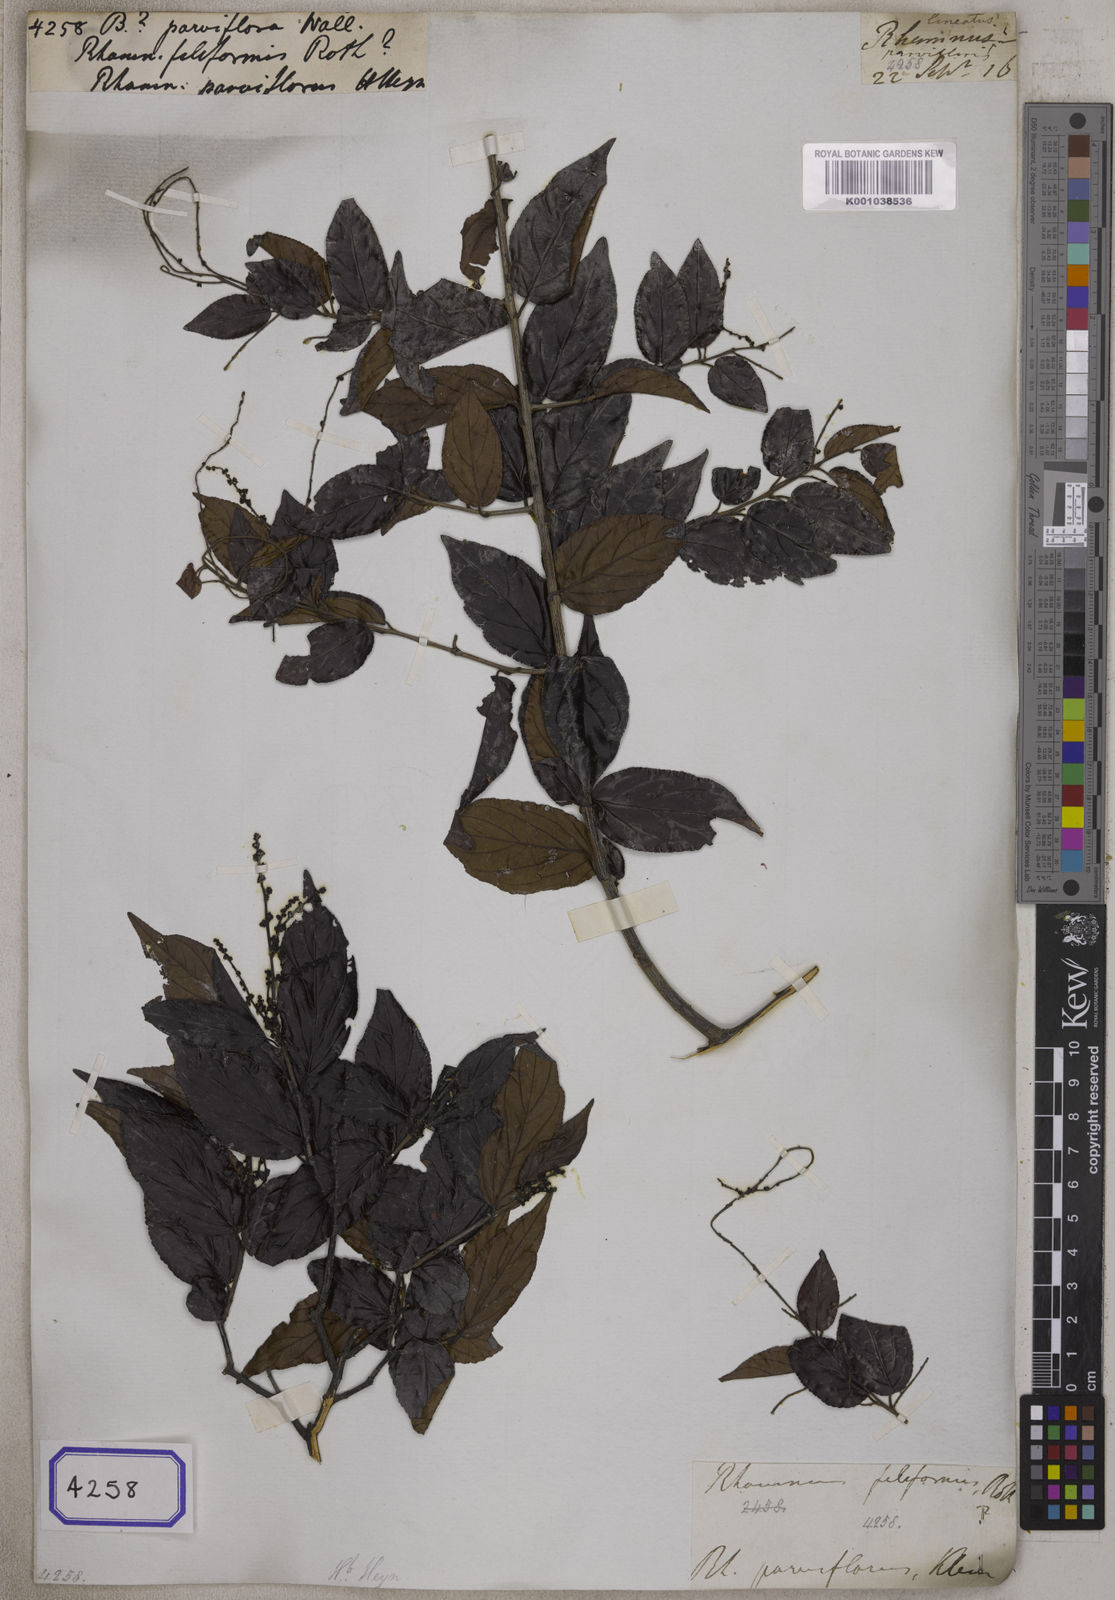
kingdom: Plantae
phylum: Tracheophyta
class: Magnoliopsida
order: Rosales
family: Rhamnaceae
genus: Berchemia
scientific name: Berchemia
